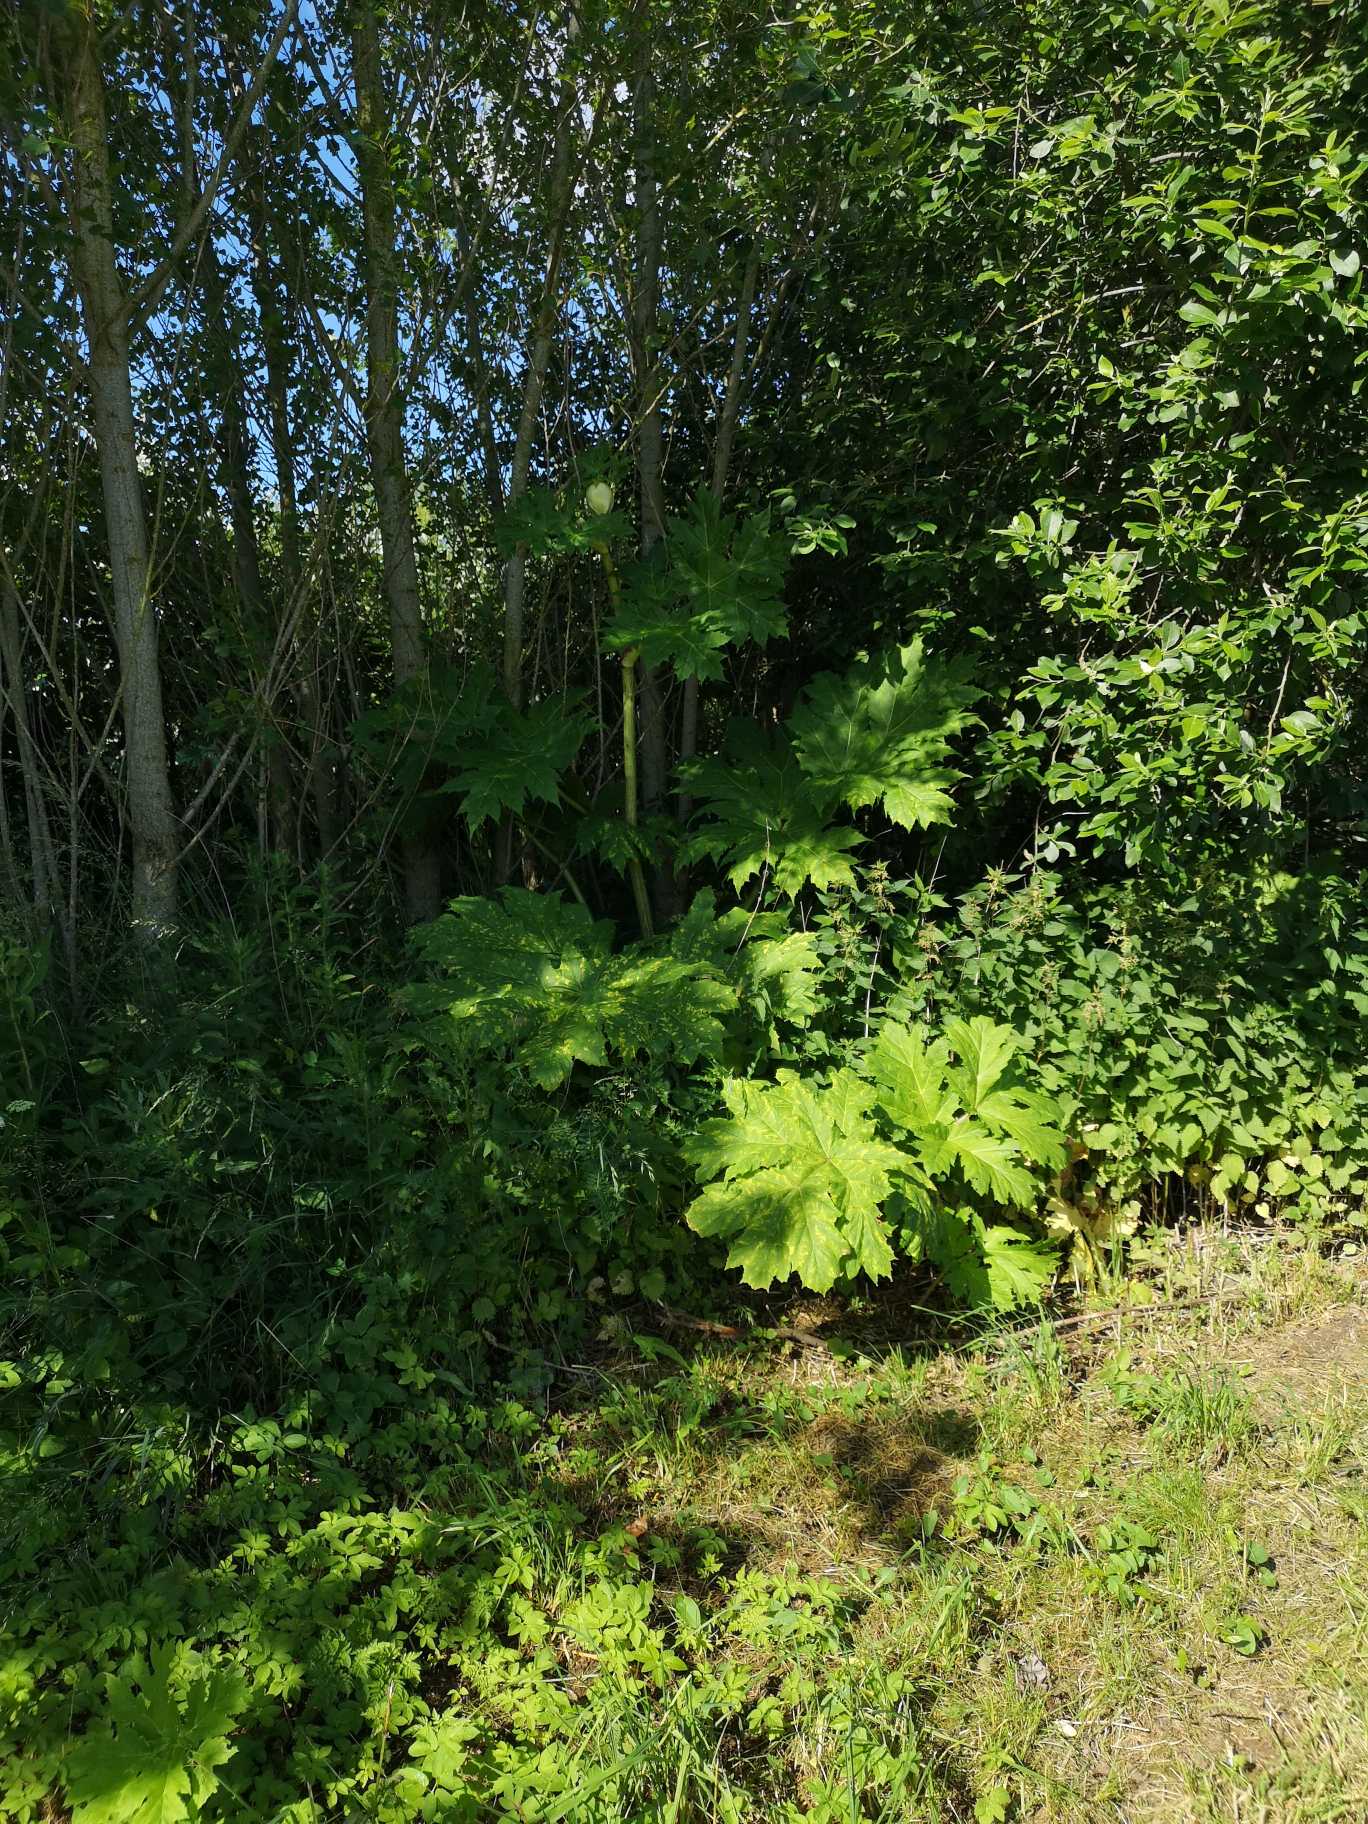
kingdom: Plantae
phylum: Tracheophyta
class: Magnoliopsida
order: Apiales
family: Apiaceae
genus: Heracleum
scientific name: Heracleum mantegazzianum
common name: Kæmpe-bjørneklo
